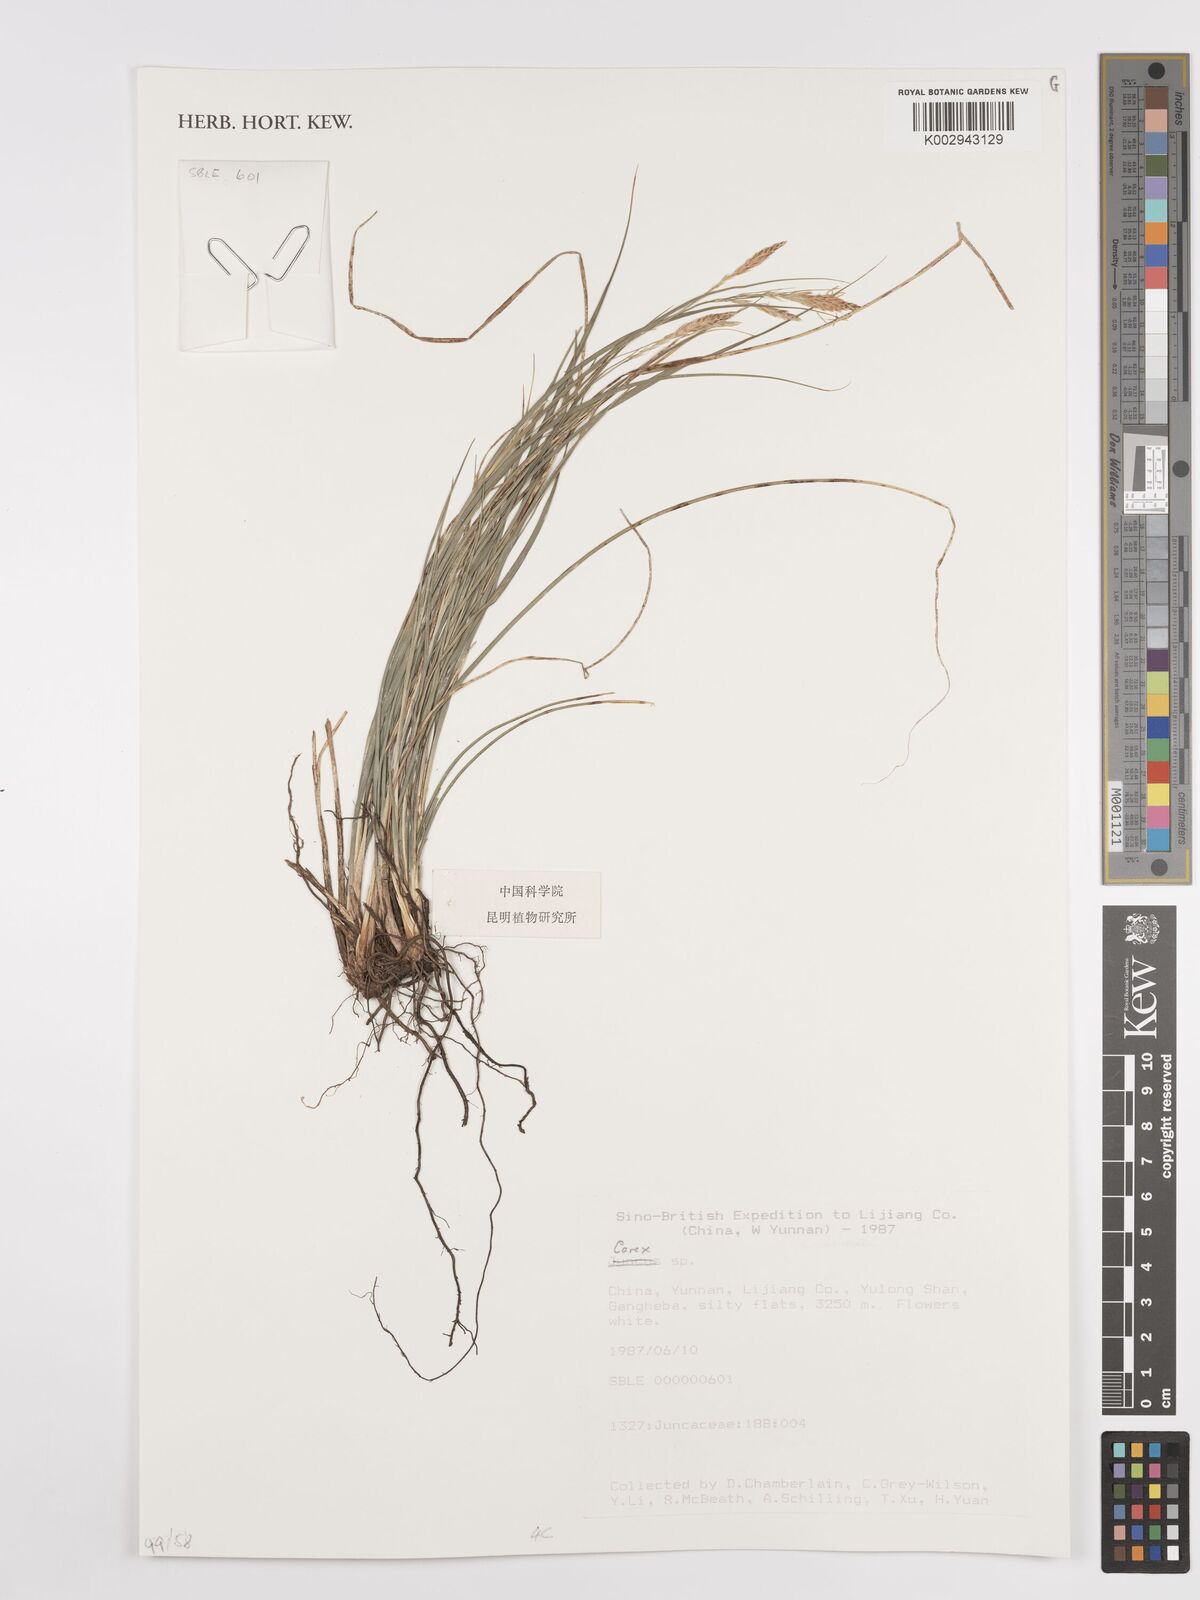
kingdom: Plantae
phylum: Tracheophyta
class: Liliopsida
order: Poales
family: Cyperaceae
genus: Carex
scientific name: Carex
